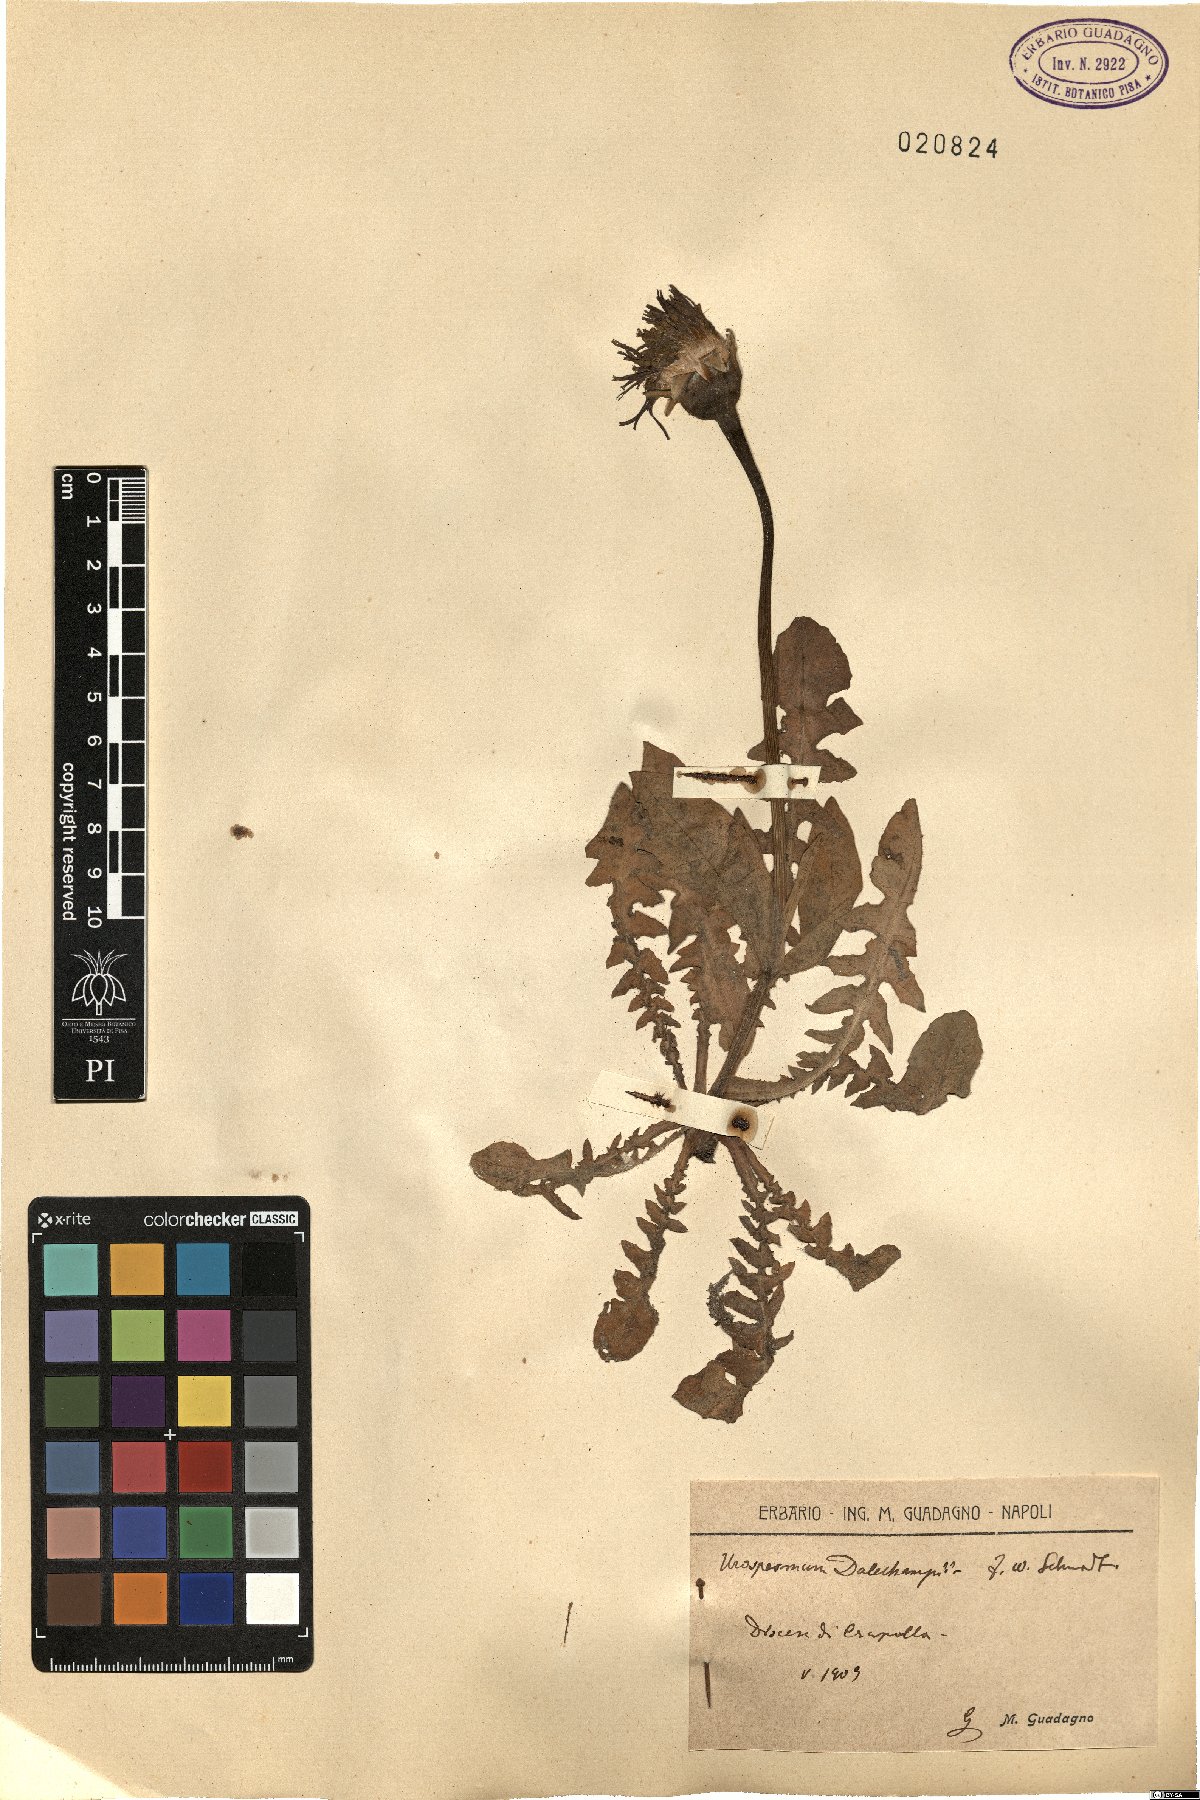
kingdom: Plantae
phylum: Tracheophyta
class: Magnoliopsida
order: Asterales
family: Asteraceae
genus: Urospermum
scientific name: Urospermum dalechampii
